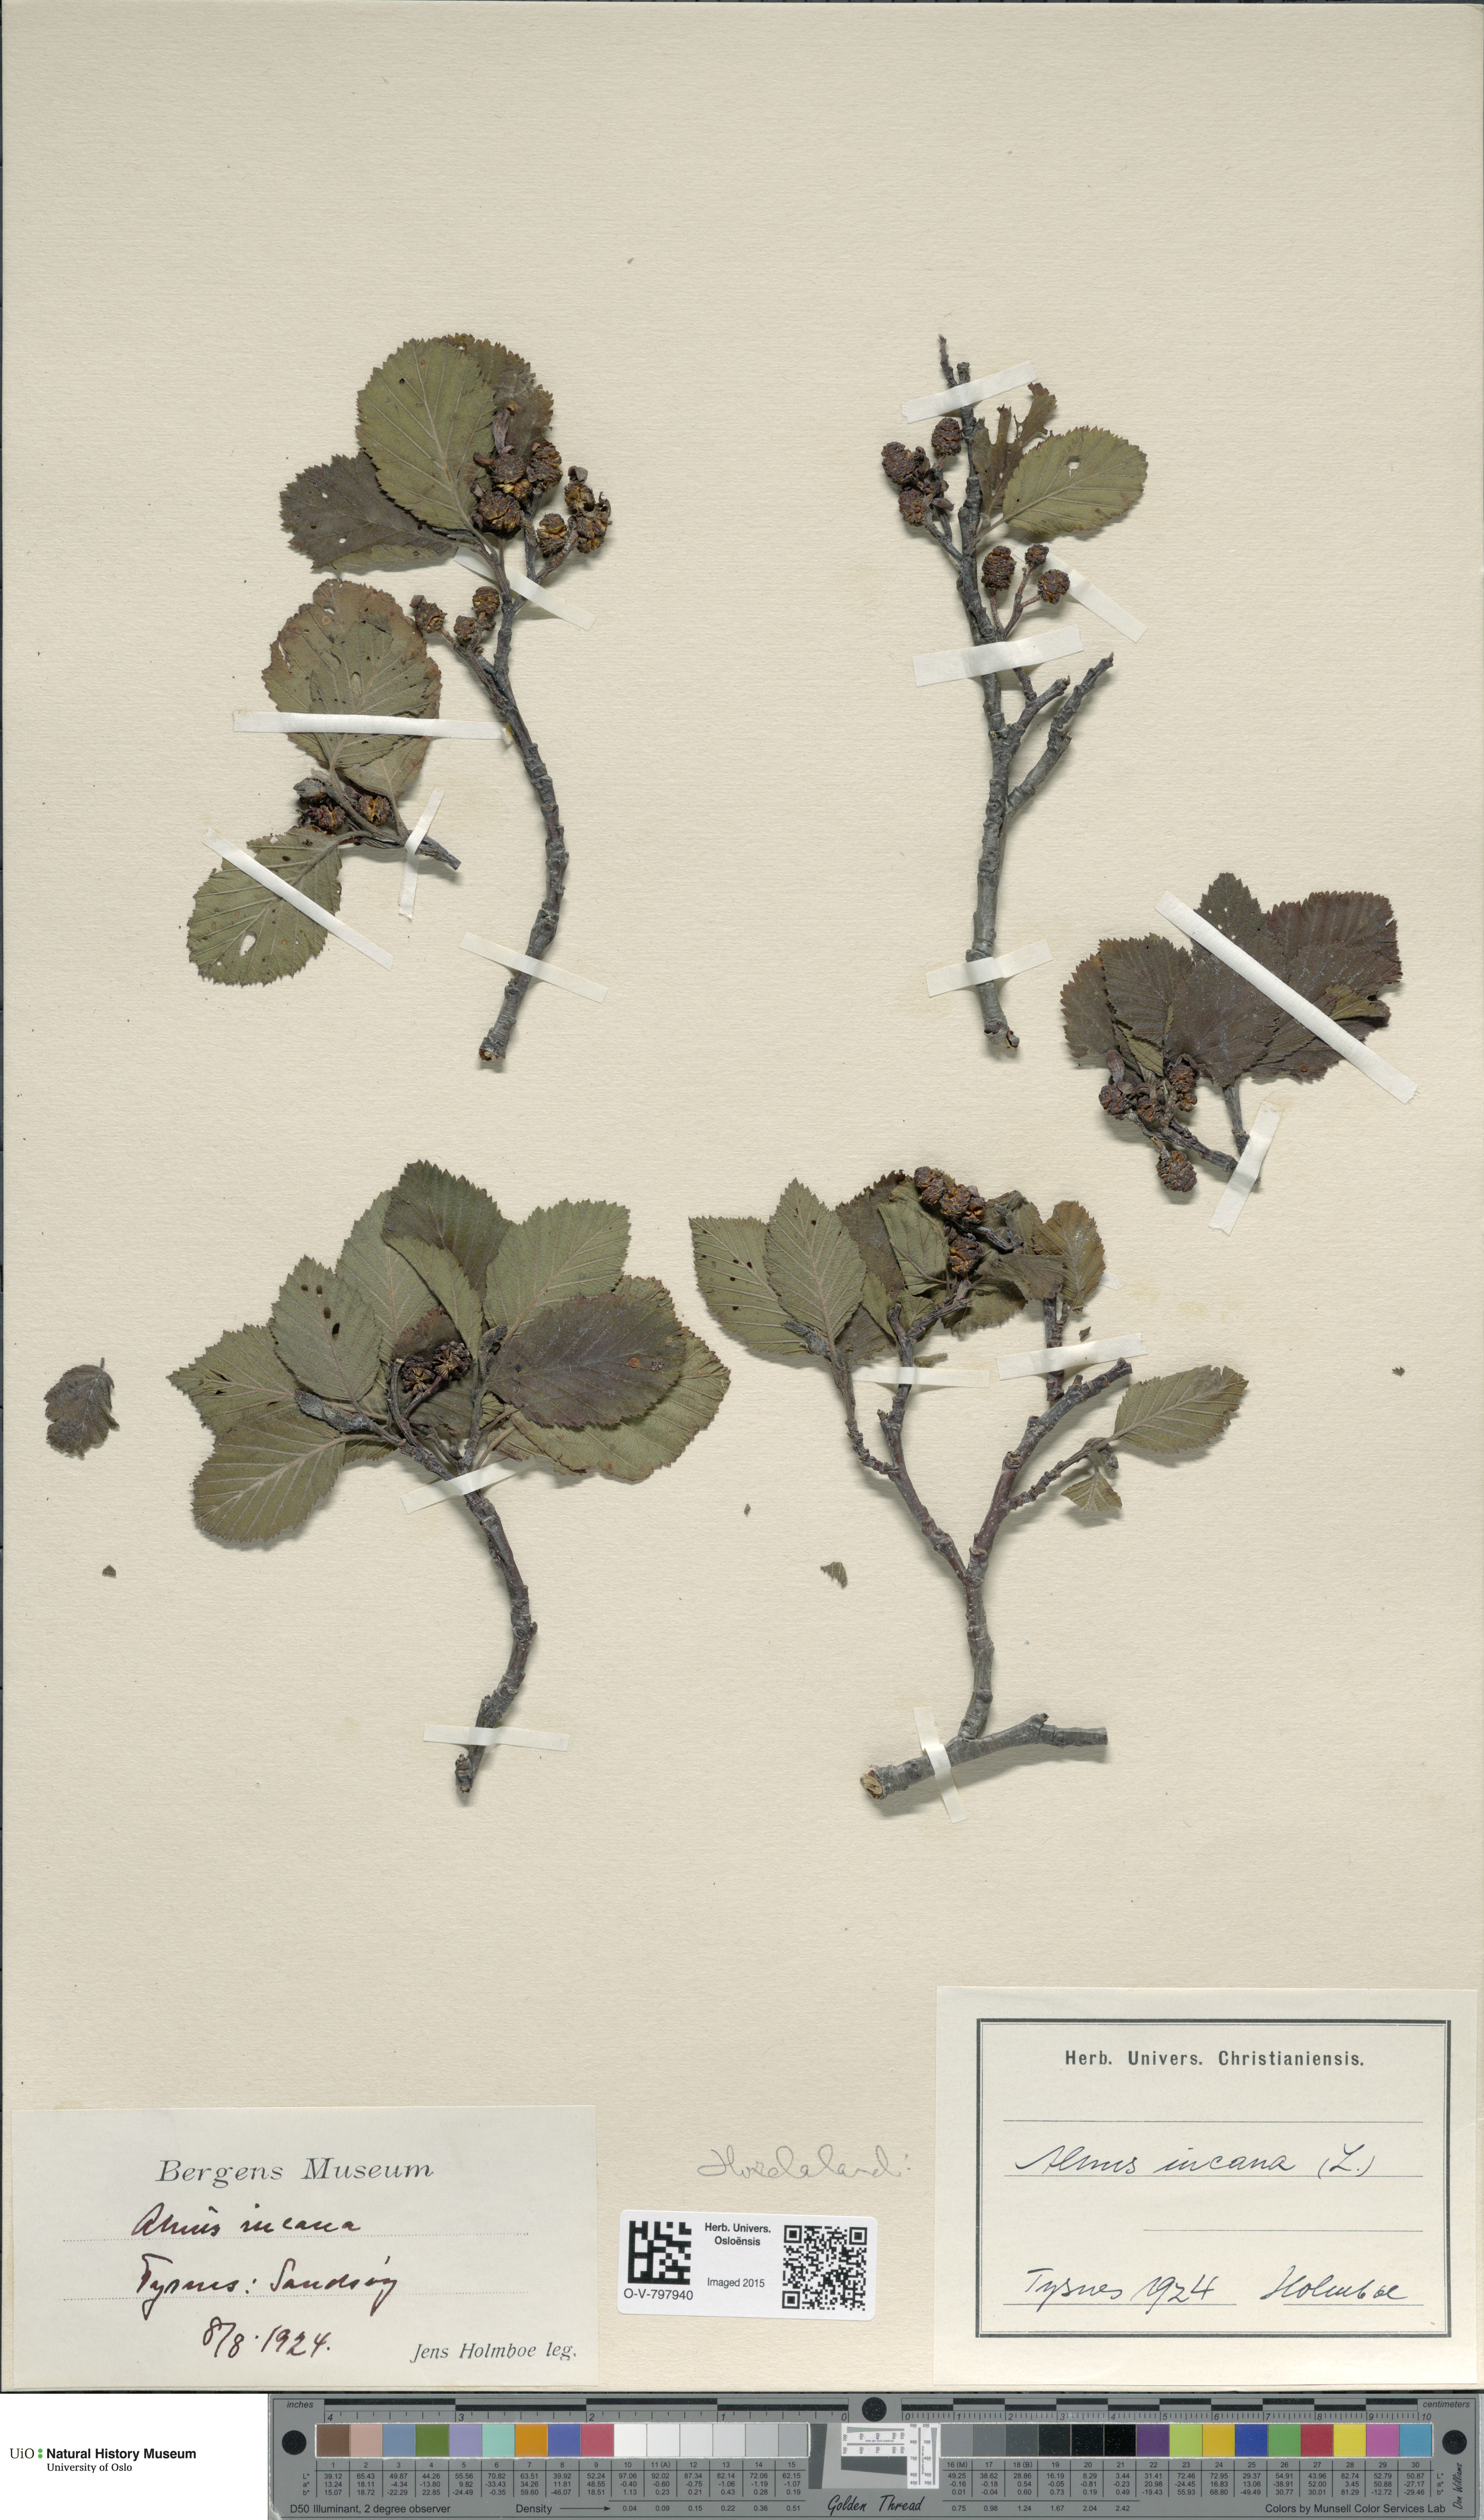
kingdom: Plantae
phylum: Tracheophyta
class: Magnoliopsida
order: Fagales
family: Betulaceae
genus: Alnus
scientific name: Alnus incana
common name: Grey alder
